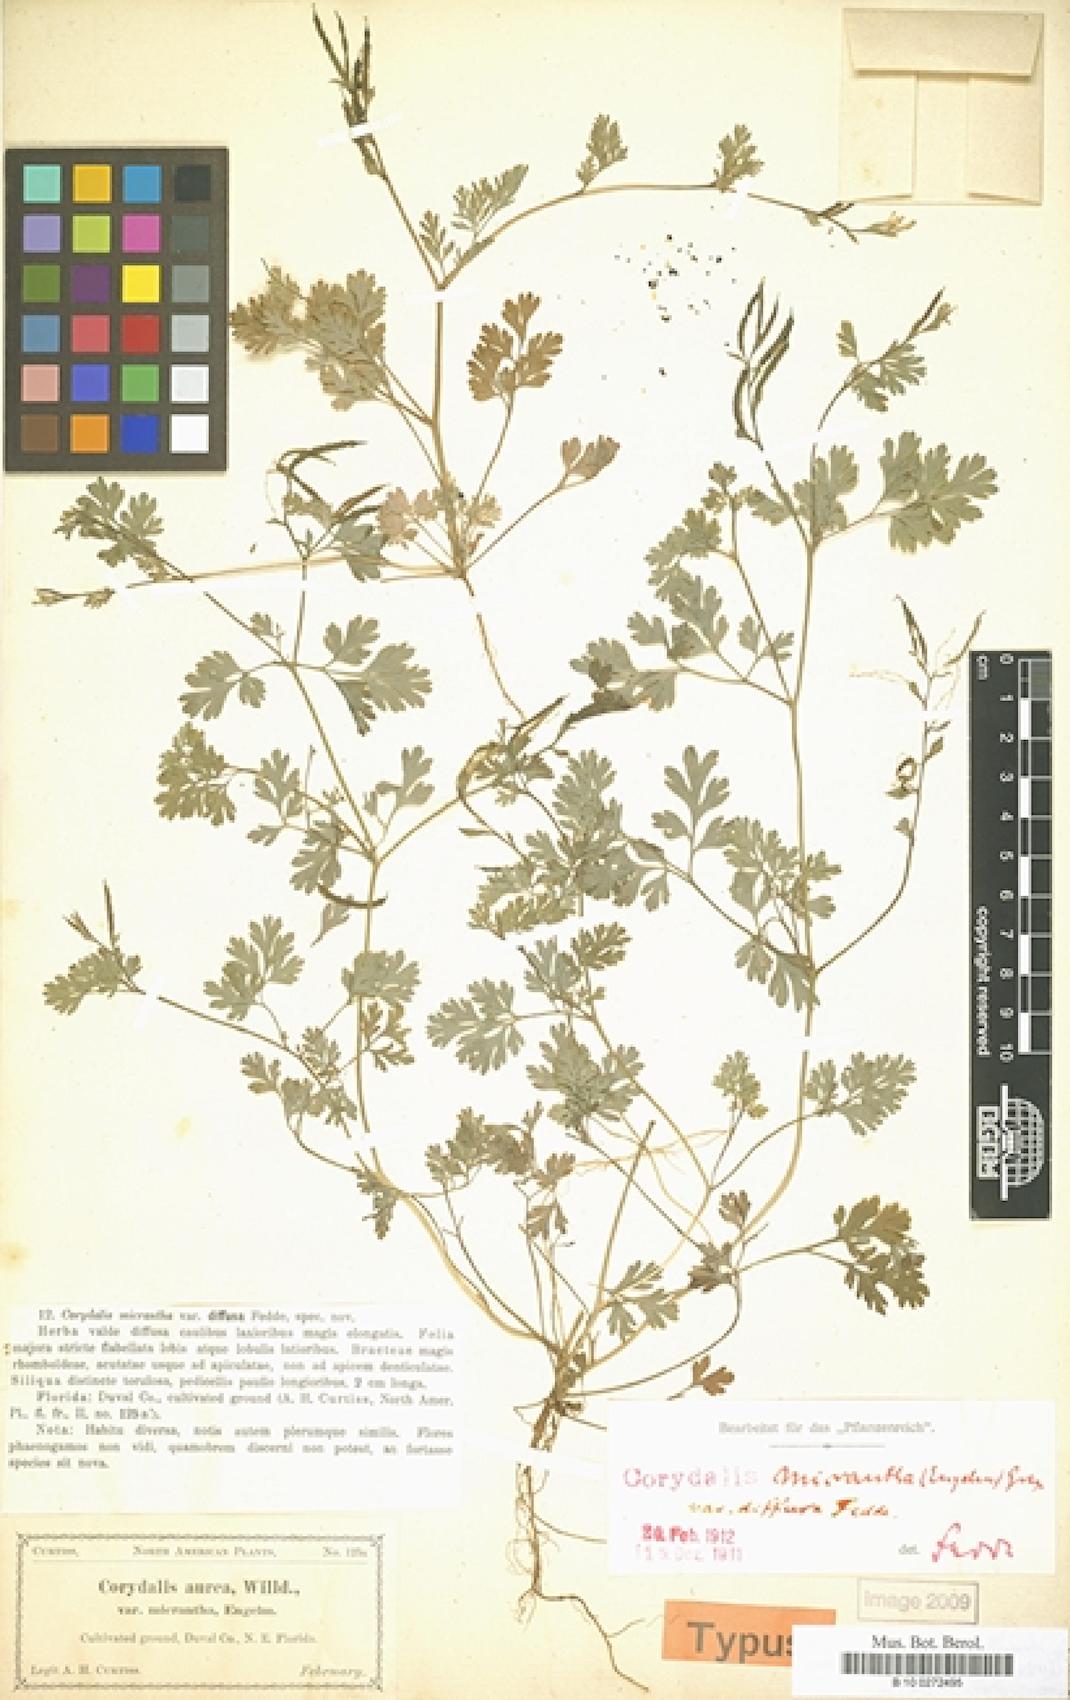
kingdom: Plantae
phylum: Tracheophyta
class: Magnoliopsida
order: Ranunculales
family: Papaveraceae
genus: Corydalis
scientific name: Corydalis micrantha
